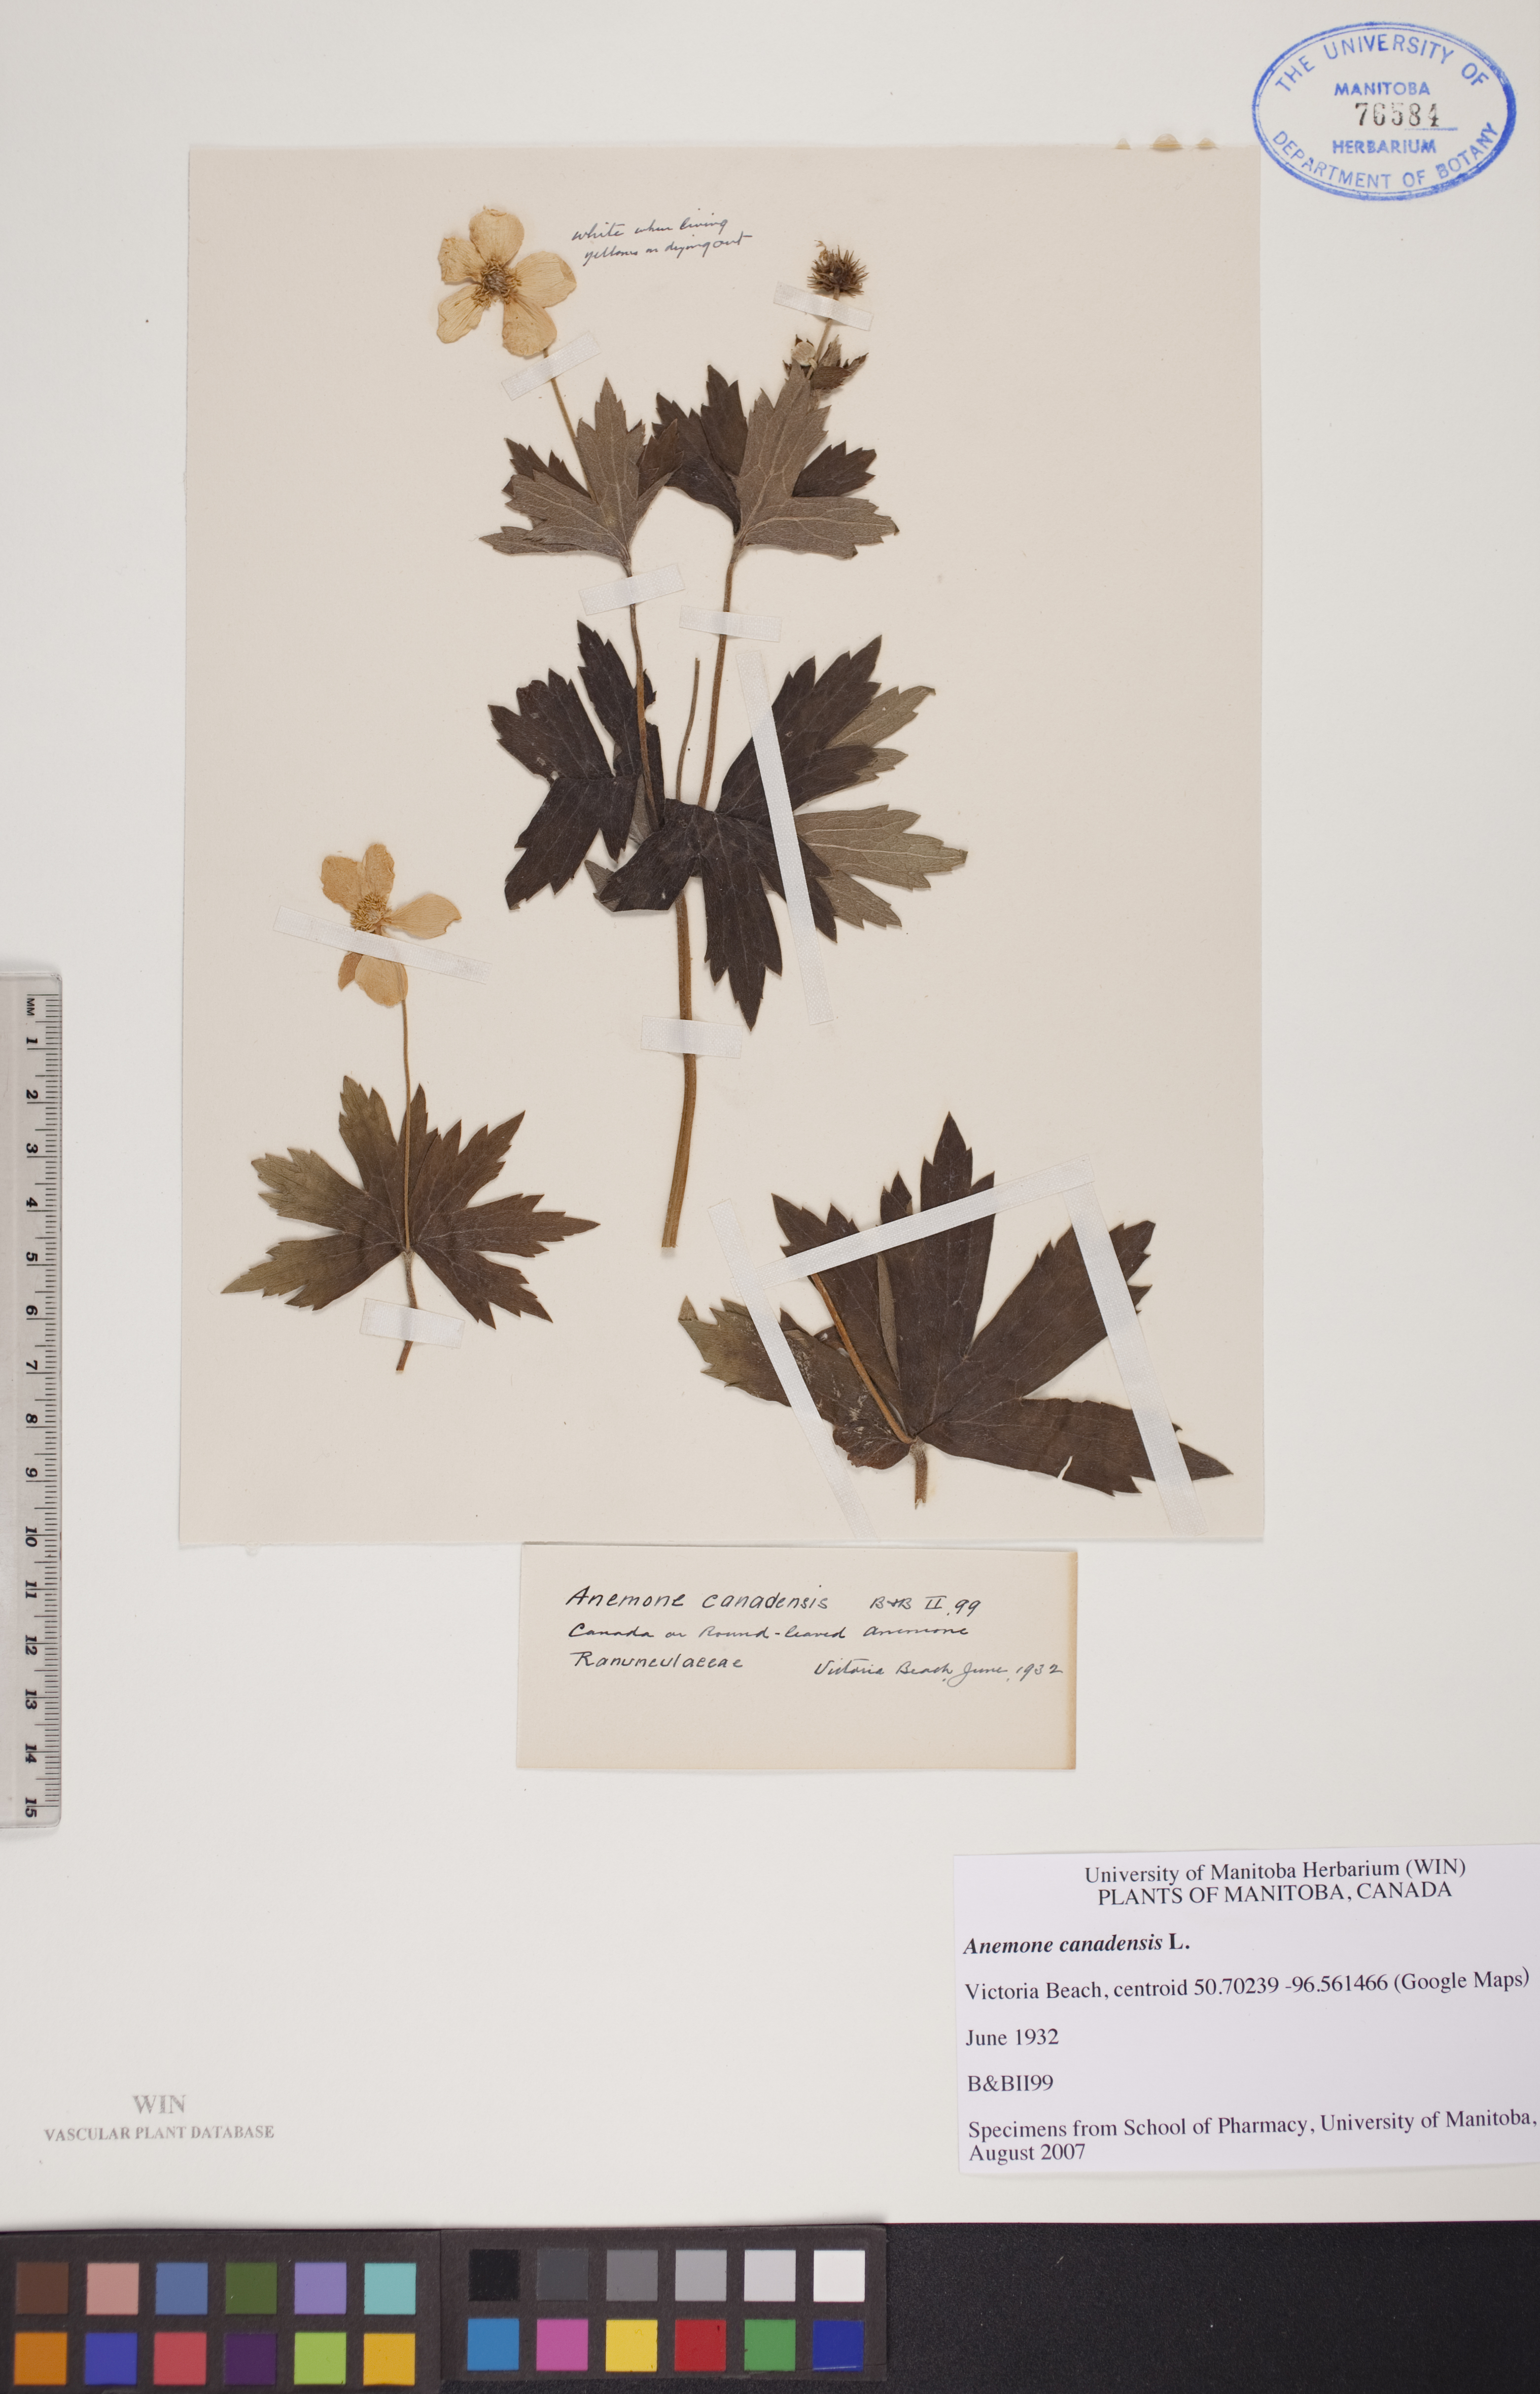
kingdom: Plantae
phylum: Tracheophyta
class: Magnoliopsida
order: Ranunculales
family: Ranunculaceae
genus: Anemonastrum
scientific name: Anemonastrum canadense
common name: Canada anemone
